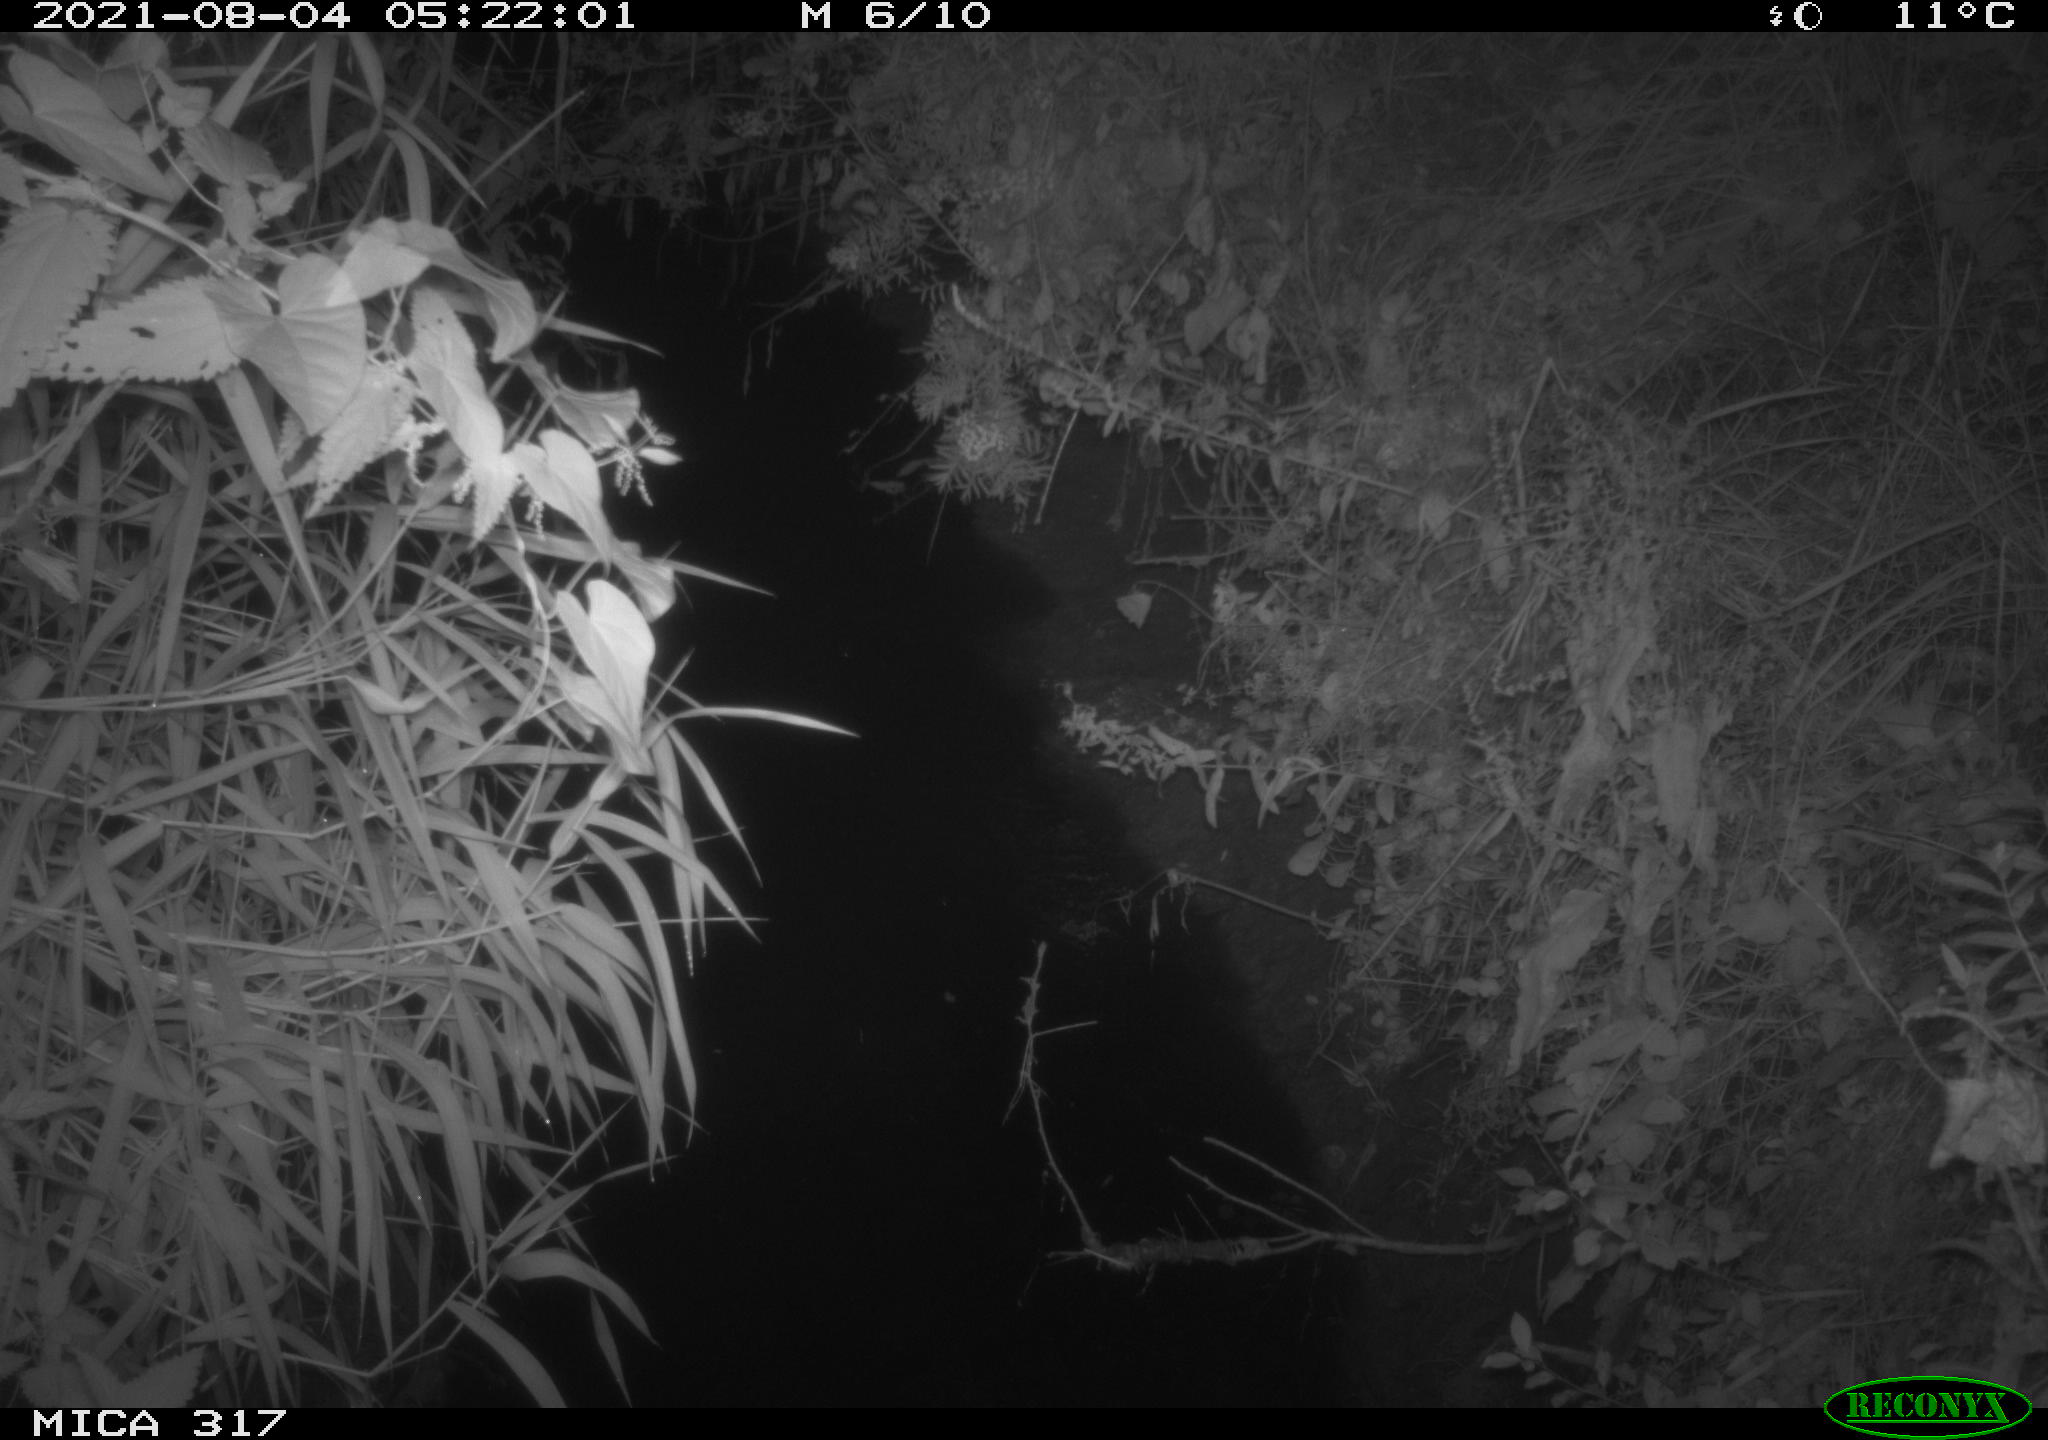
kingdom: Animalia
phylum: Chordata
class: Mammalia
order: Artiodactyla
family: Cervidae
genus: Capreolus
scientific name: Capreolus capreolus
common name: Western roe deer
